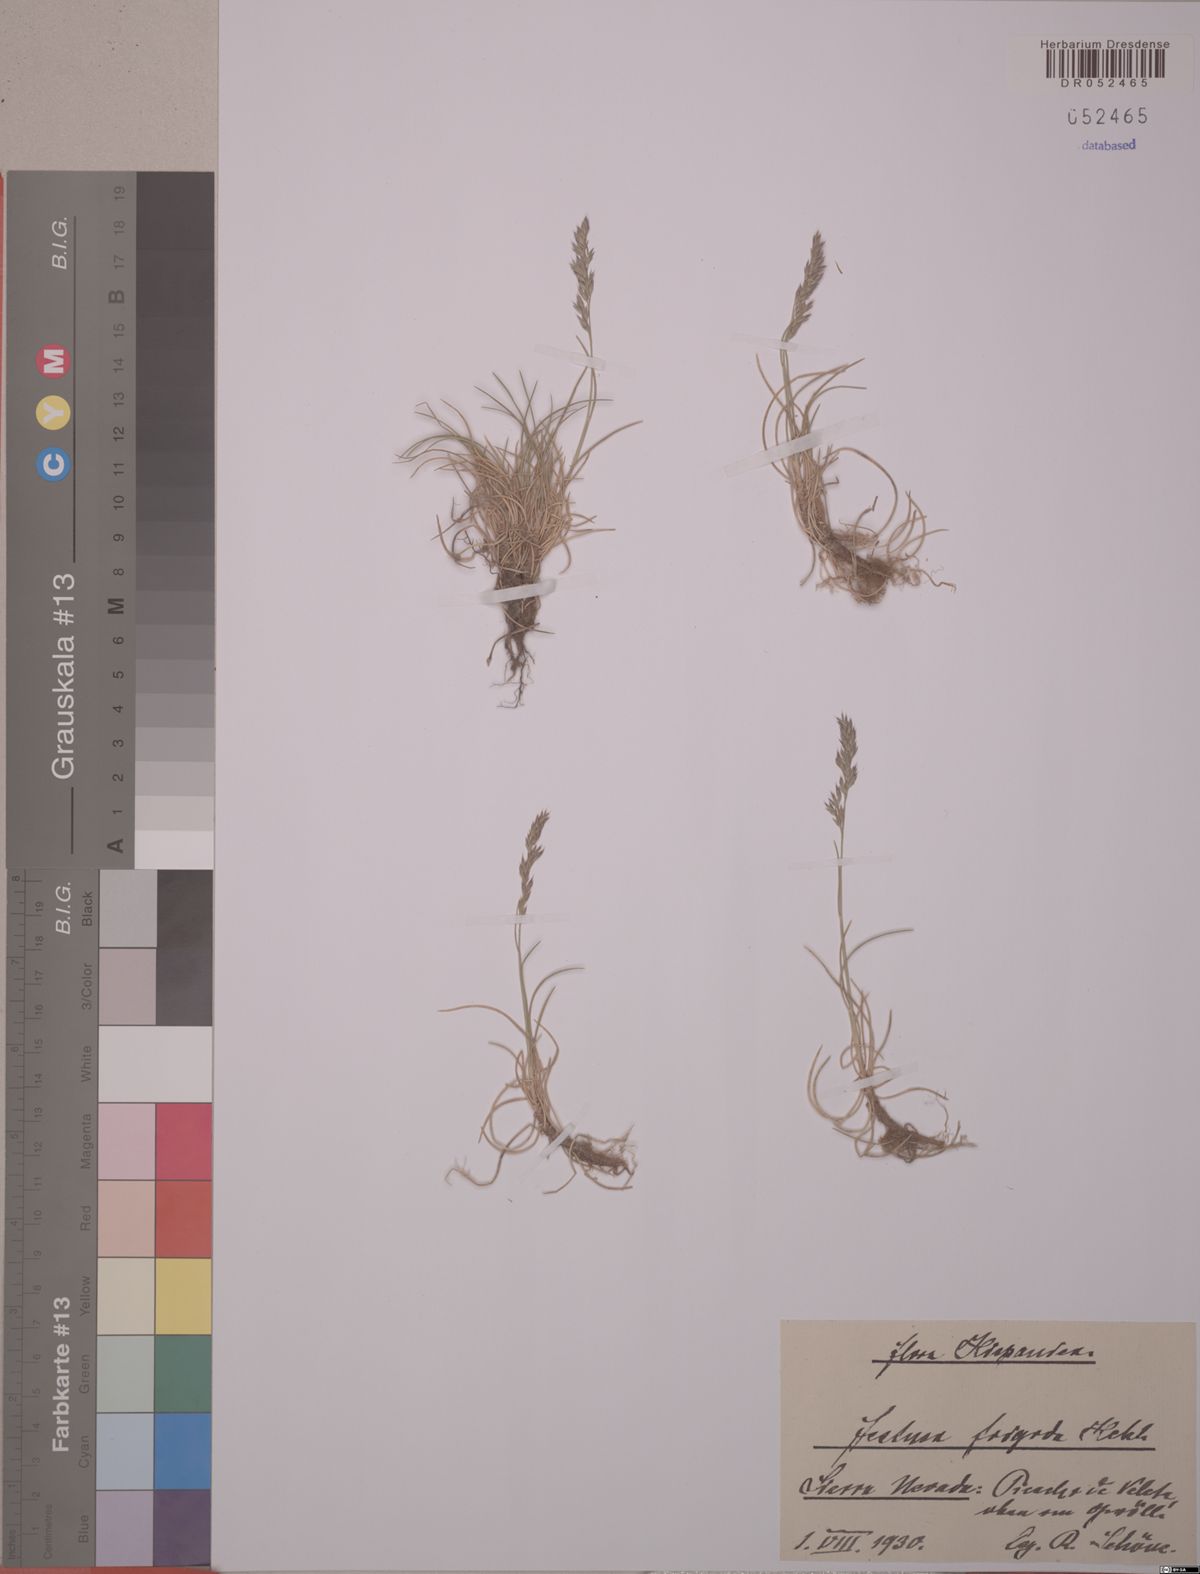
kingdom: Plantae
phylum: Tracheophyta
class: Liliopsida
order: Poales
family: Poaceae
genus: Festuca
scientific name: Festuca frigida
